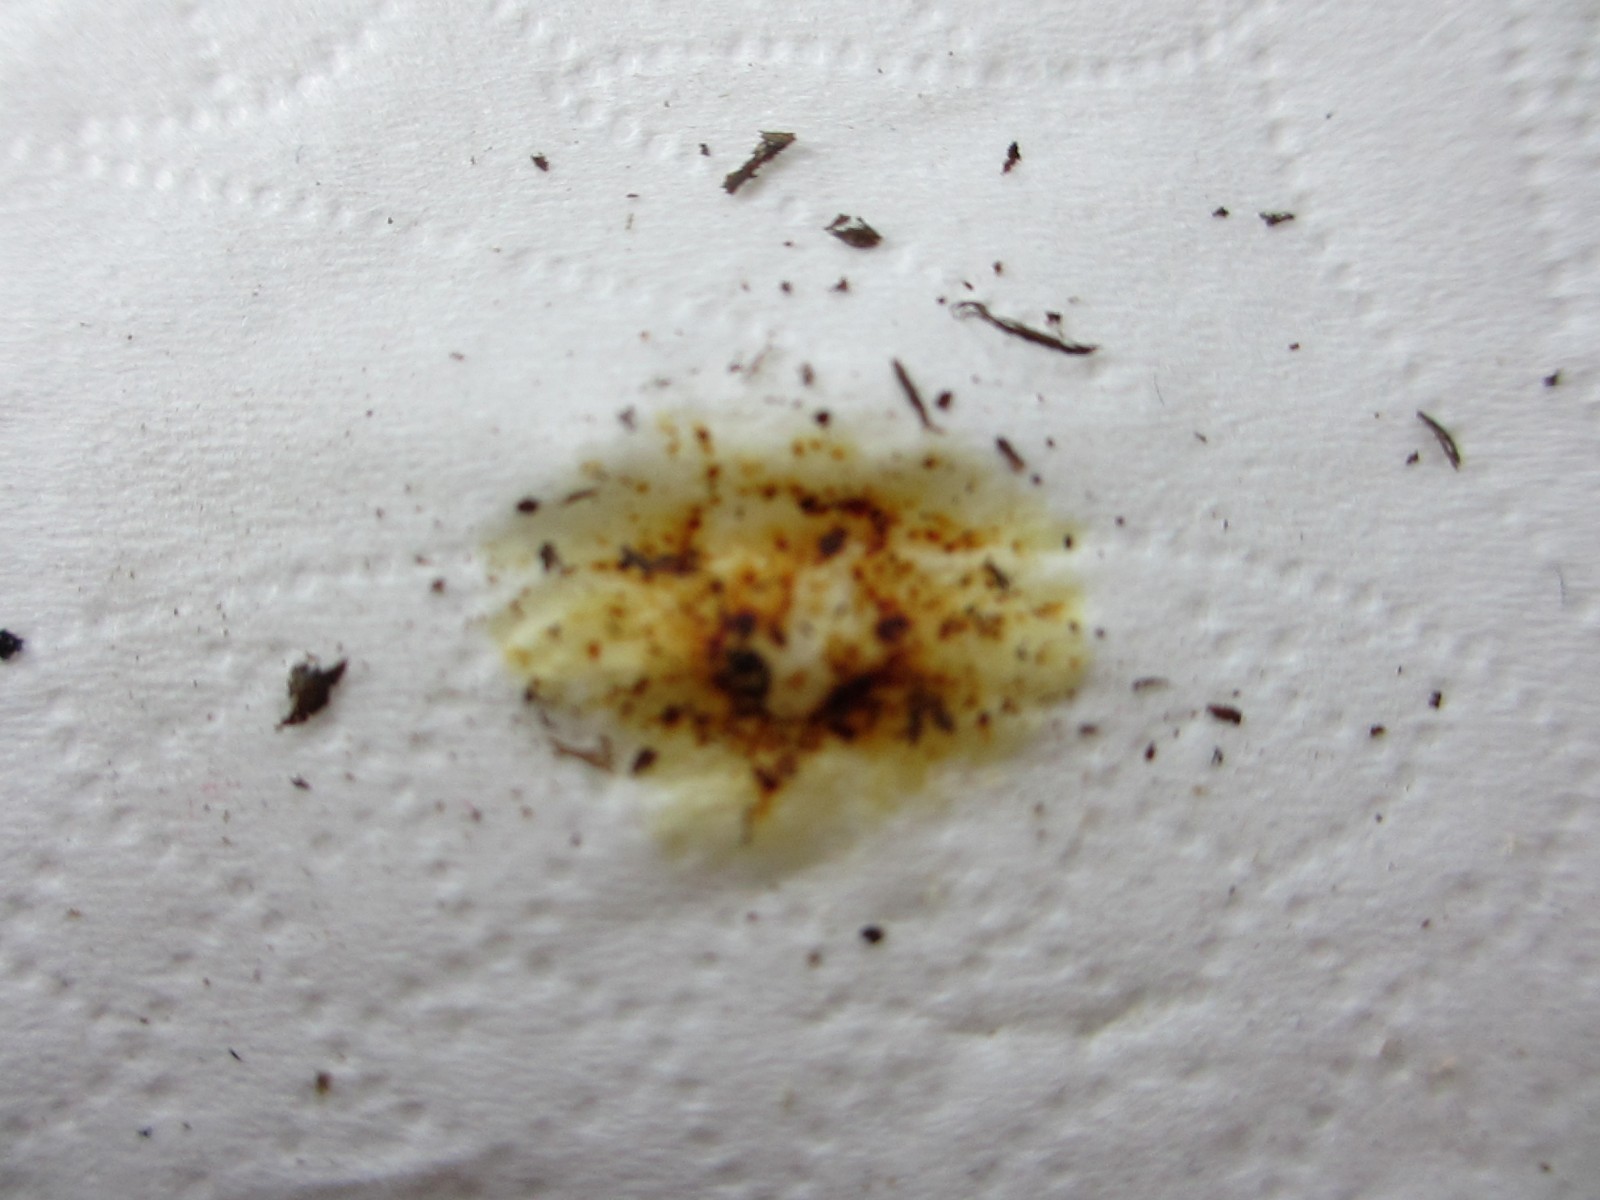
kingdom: Fungi
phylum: Ascomycota
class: Sordariomycetes
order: Xylariales
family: Hypoxylaceae
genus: Hypoxylon
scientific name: Hypoxylon petriniae
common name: nedsænket kulbær
